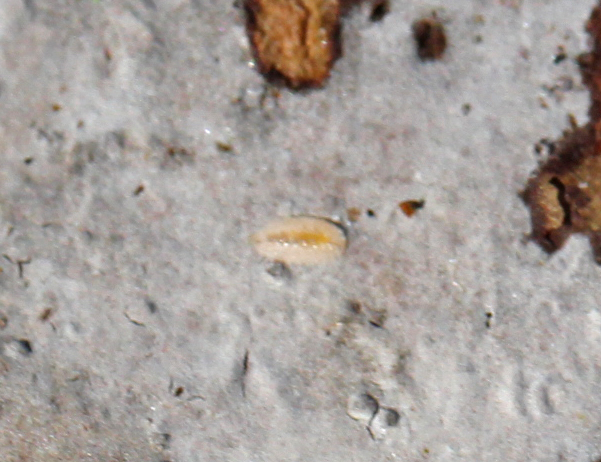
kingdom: Fungi
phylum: Basidiomycota
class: Agaricomycetes
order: Russulales
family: Peniophoraceae
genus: Peniophora
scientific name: Peniophora limitata
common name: mørkrandet voksskind
